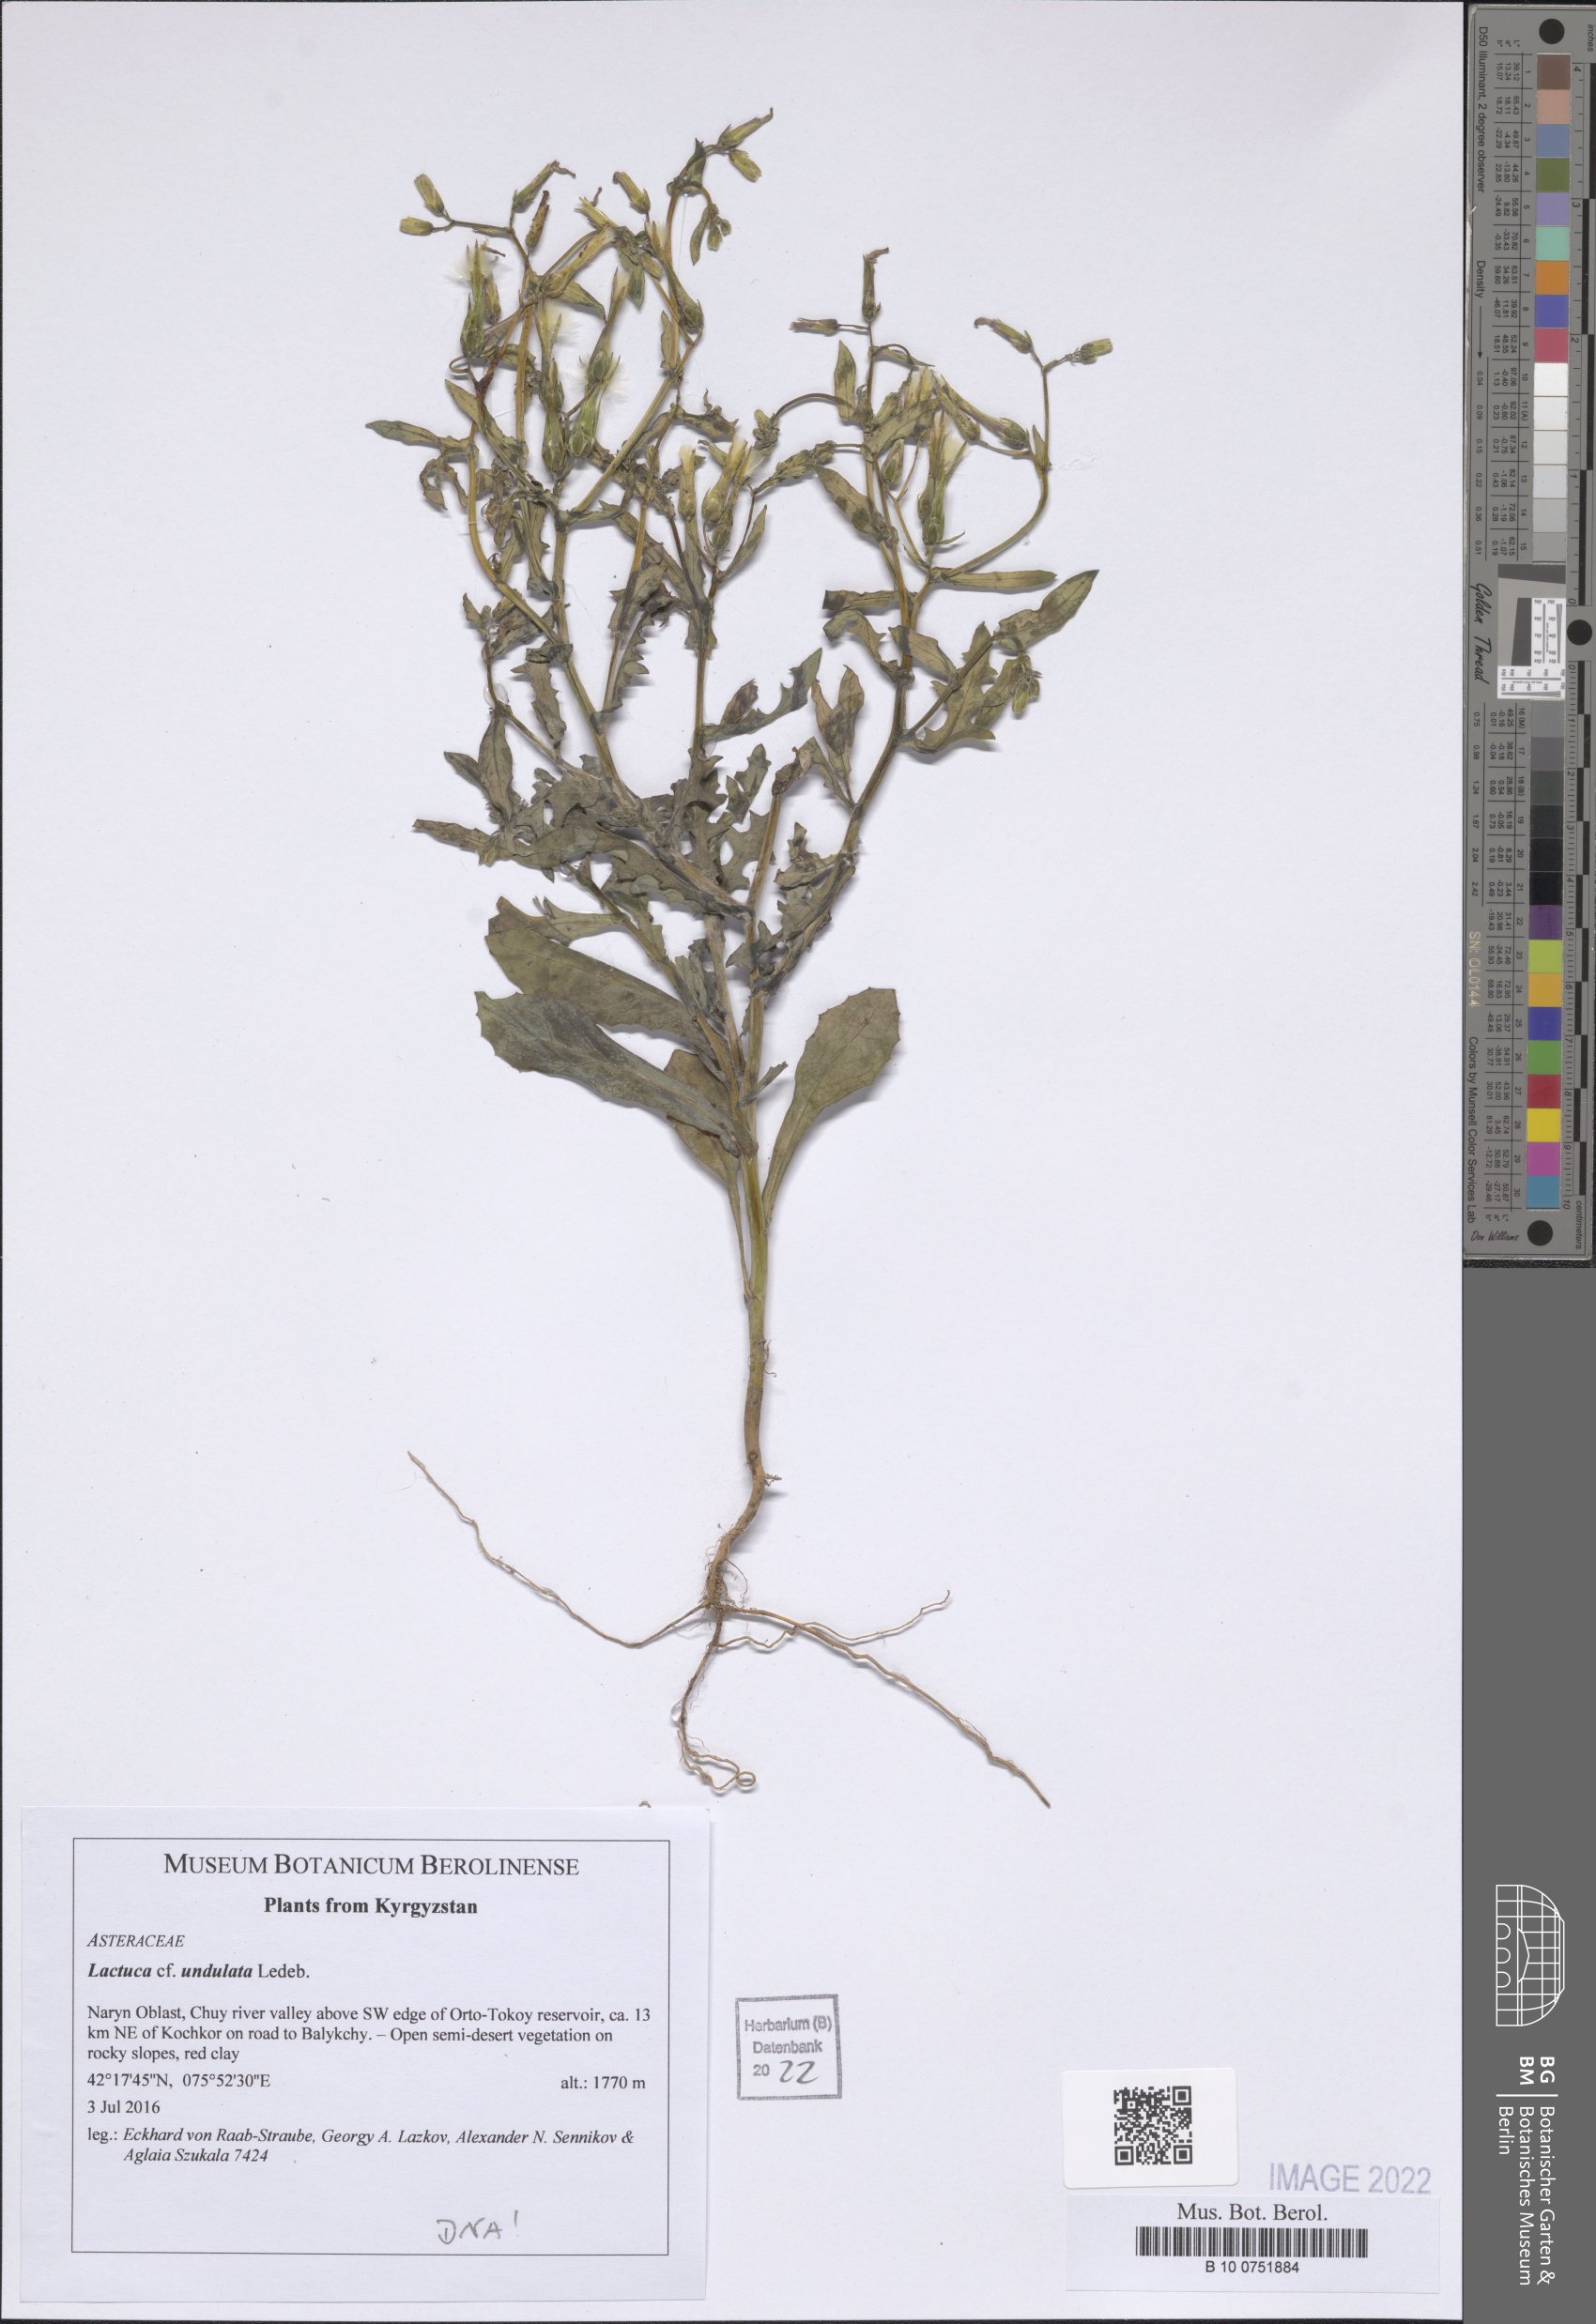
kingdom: Plantae
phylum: Tracheophyta
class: Magnoliopsida
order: Asterales
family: Asteraceae
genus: Lactuca
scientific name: Lactuca undulata
